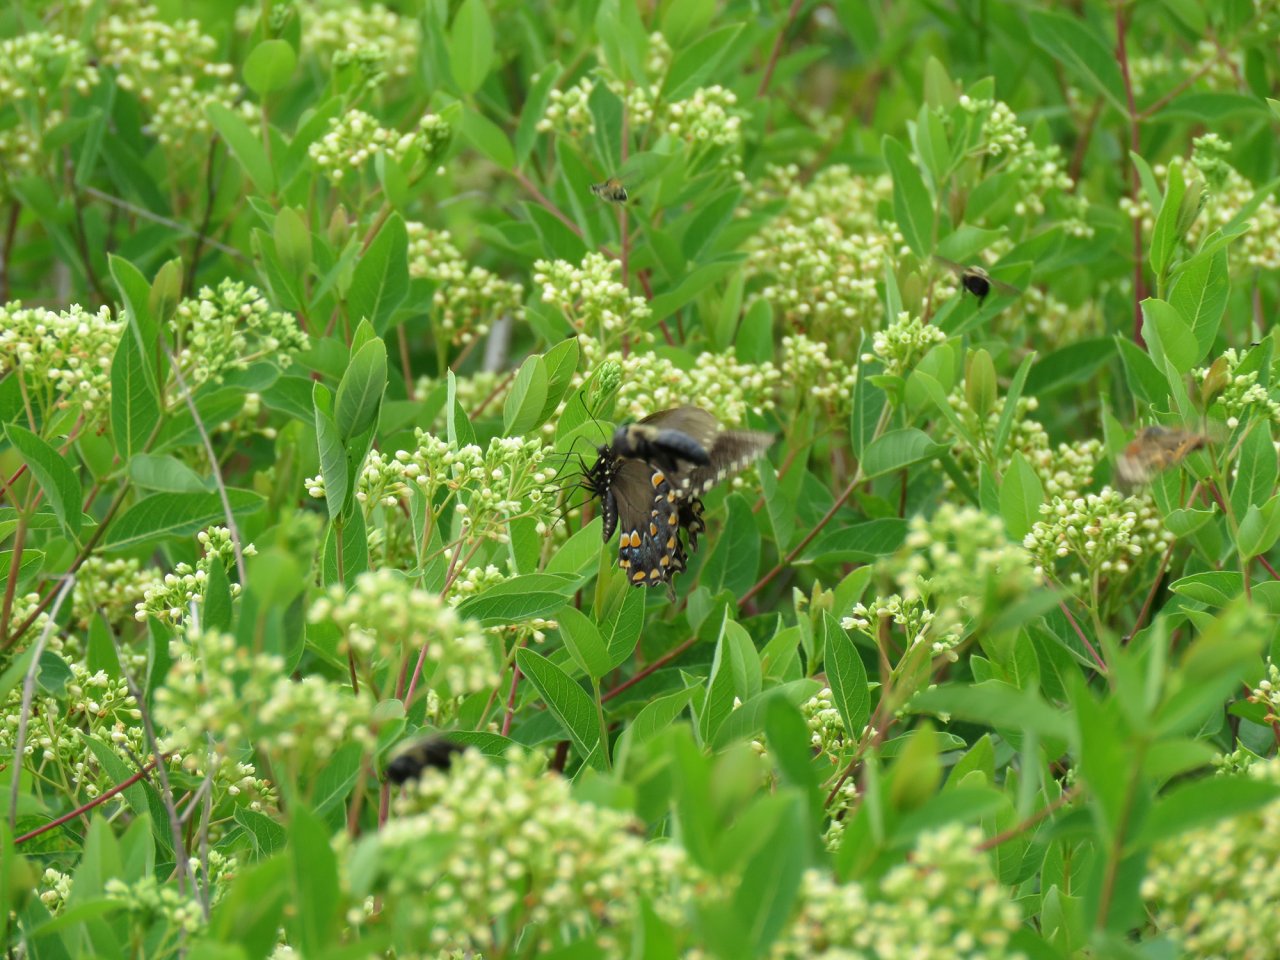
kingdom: Animalia
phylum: Arthropoda
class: Insecta
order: Lepidoptera
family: Papilionidae
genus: Pterourus
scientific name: Pterourus troilus
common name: Spicebush Swallowtail
